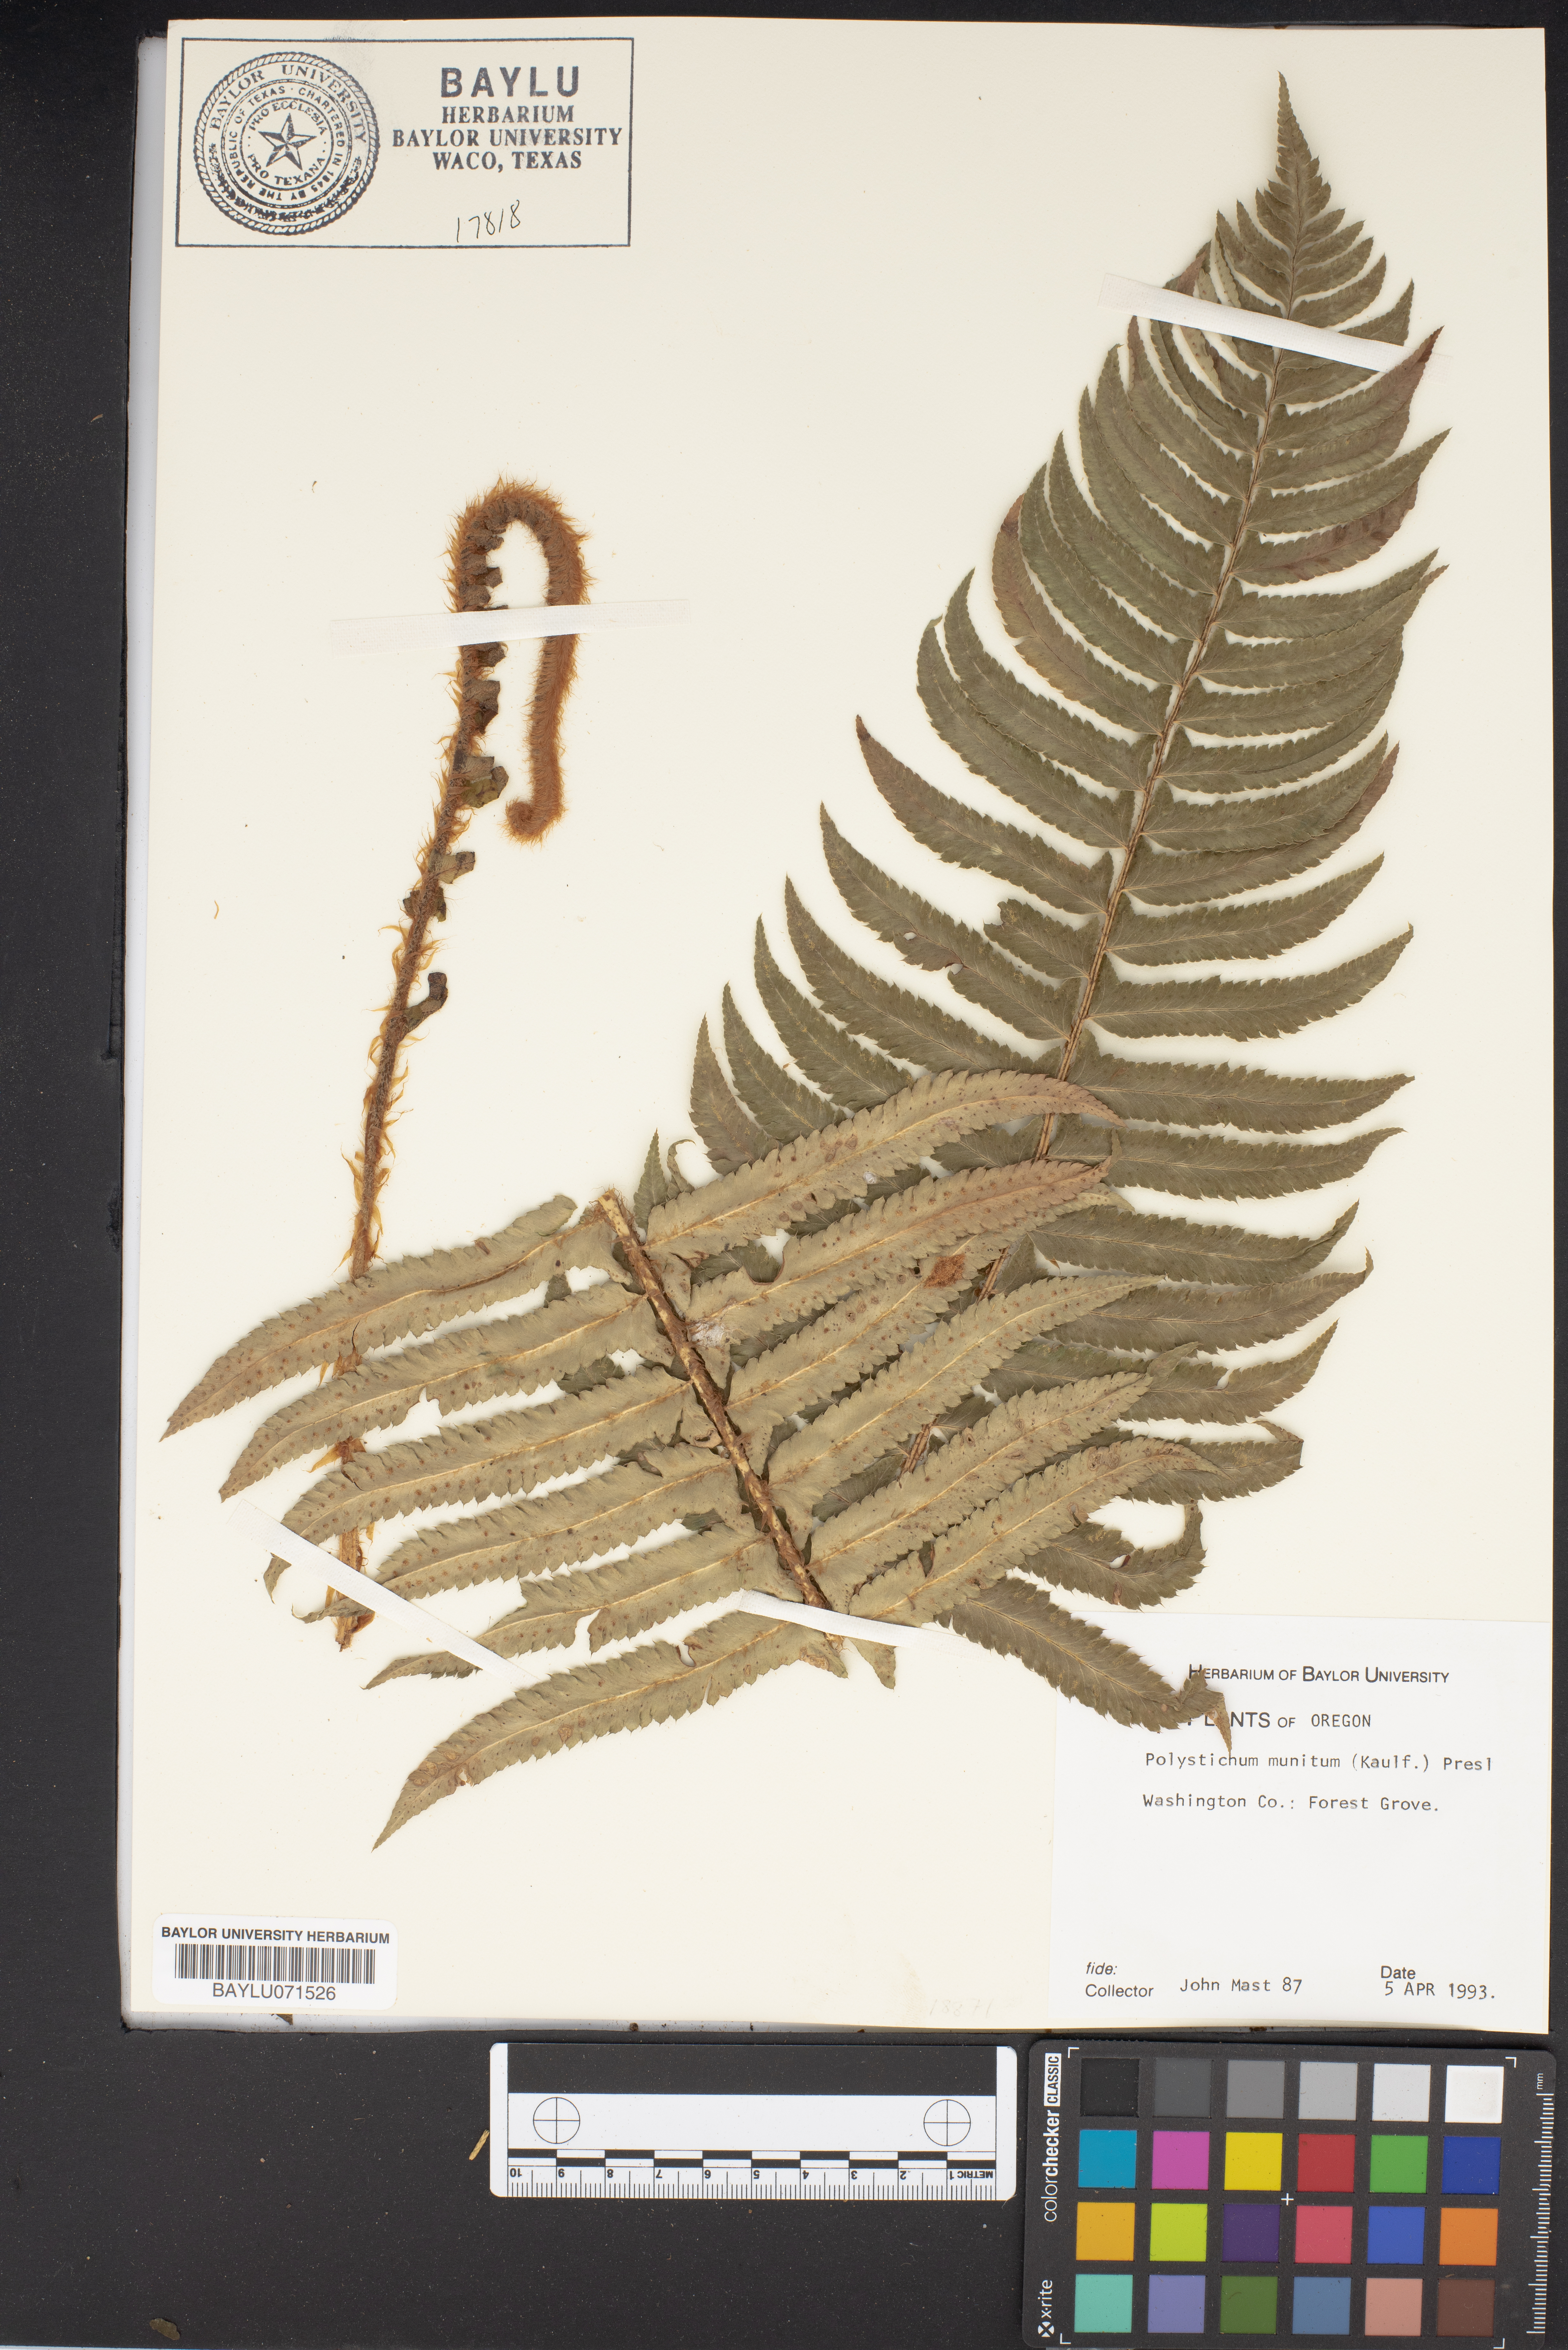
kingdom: Plantae
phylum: Tracheophyta
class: Polypodiopsida
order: Polypodiales
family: Dryopteridaceae
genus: Polystichum
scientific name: Polystichum munitum
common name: Western sword-fern
